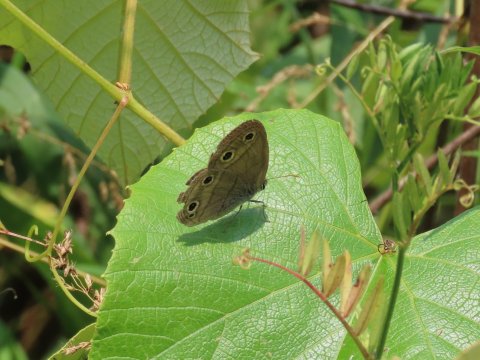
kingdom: Animalia
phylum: Arthropoda
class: Insecta
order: Lepidoptera
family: Nymphalidae
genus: Euptychia
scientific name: Euptychia cymela
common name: Little Wood Satyr
